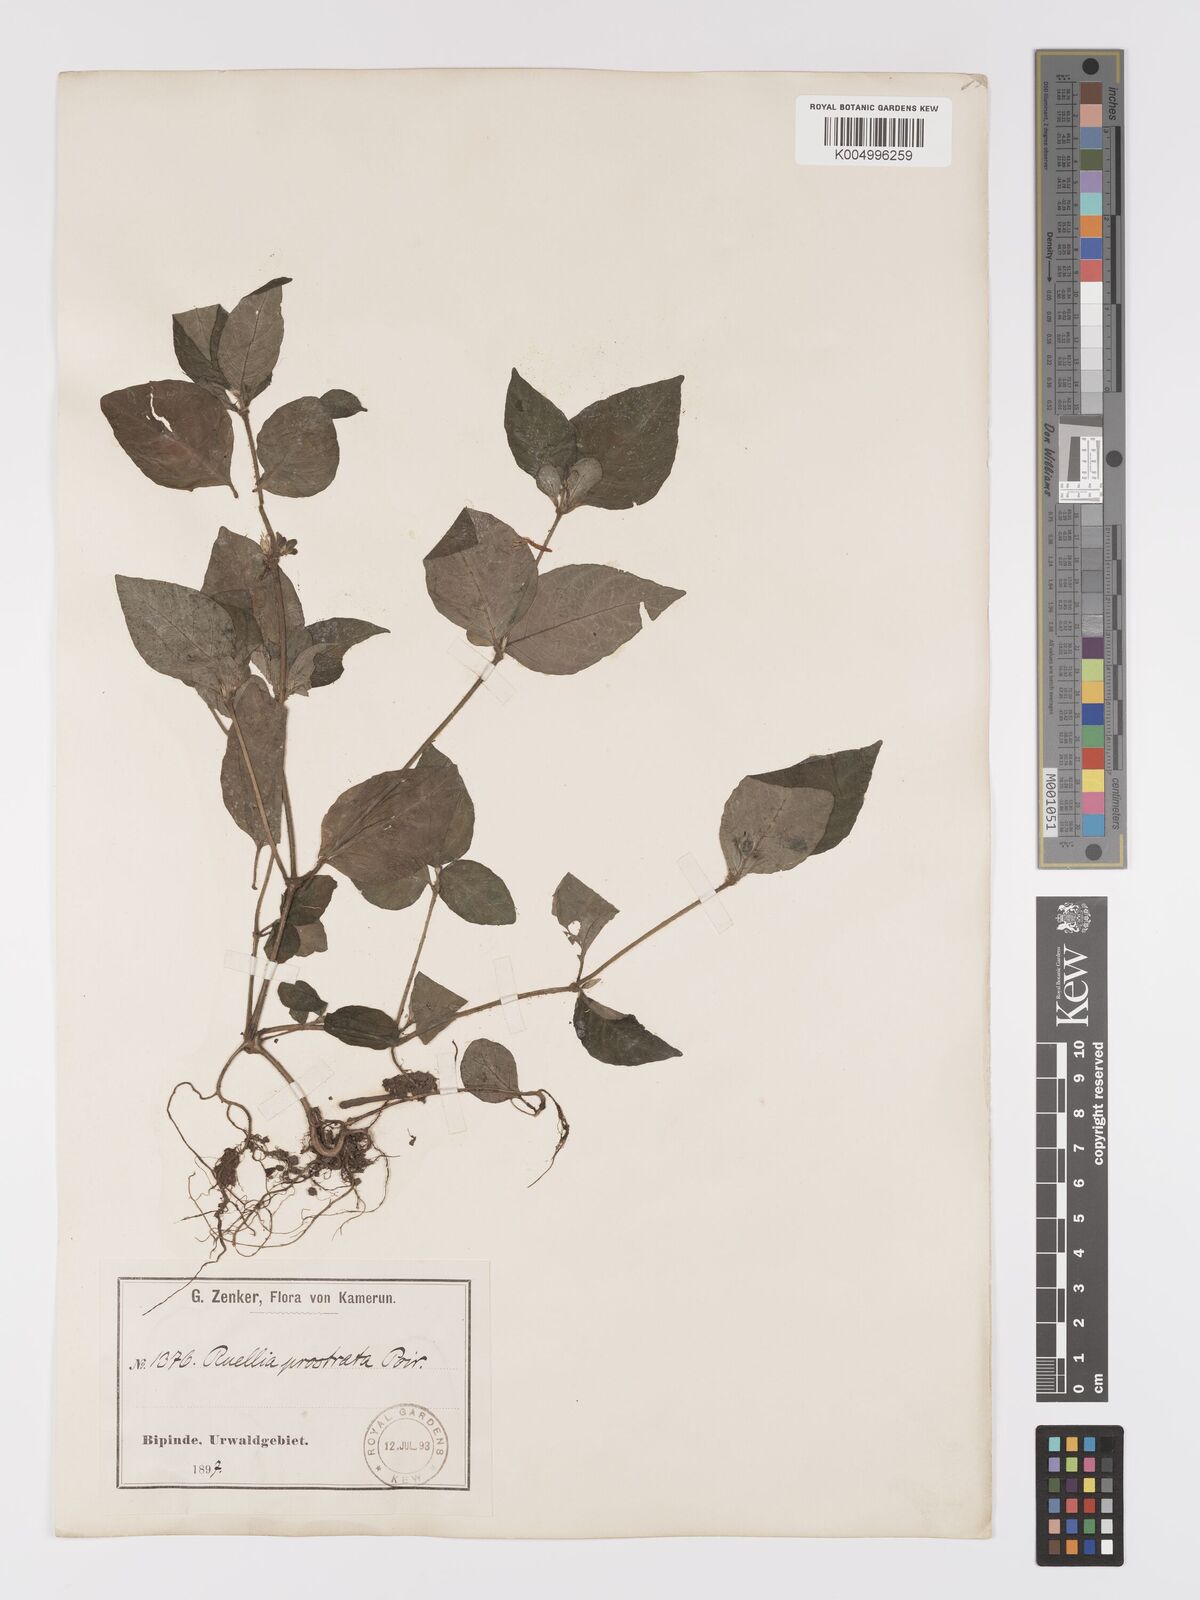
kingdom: Plantae
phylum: Tracheophyta
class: Magnoliopsida
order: Lamiales
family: Acanthaceae
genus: Ruellia
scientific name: Ruellia praetermissa
